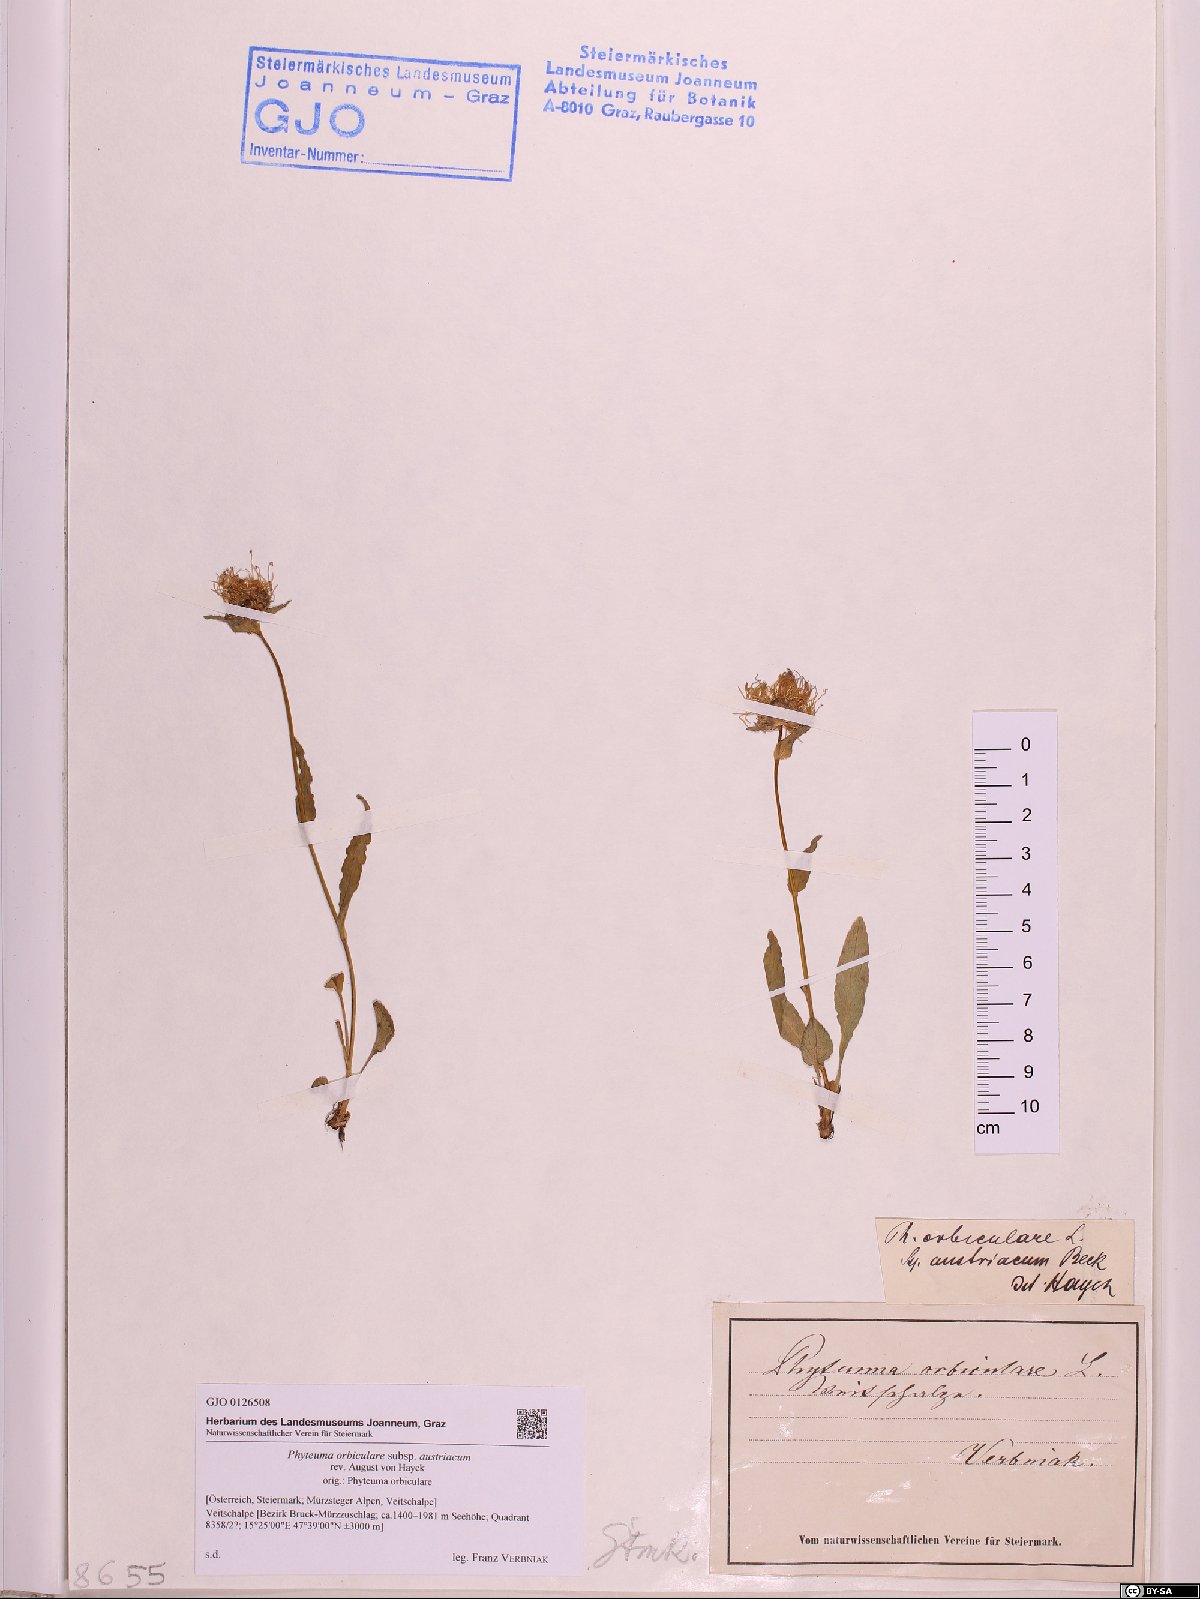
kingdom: Plantae
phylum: Tracheophyta
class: Magnoliopsida
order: Asterales
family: Campanulaceae
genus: Phyteuma
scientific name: Phyteuma orbiculare
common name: Round-headed rampion
